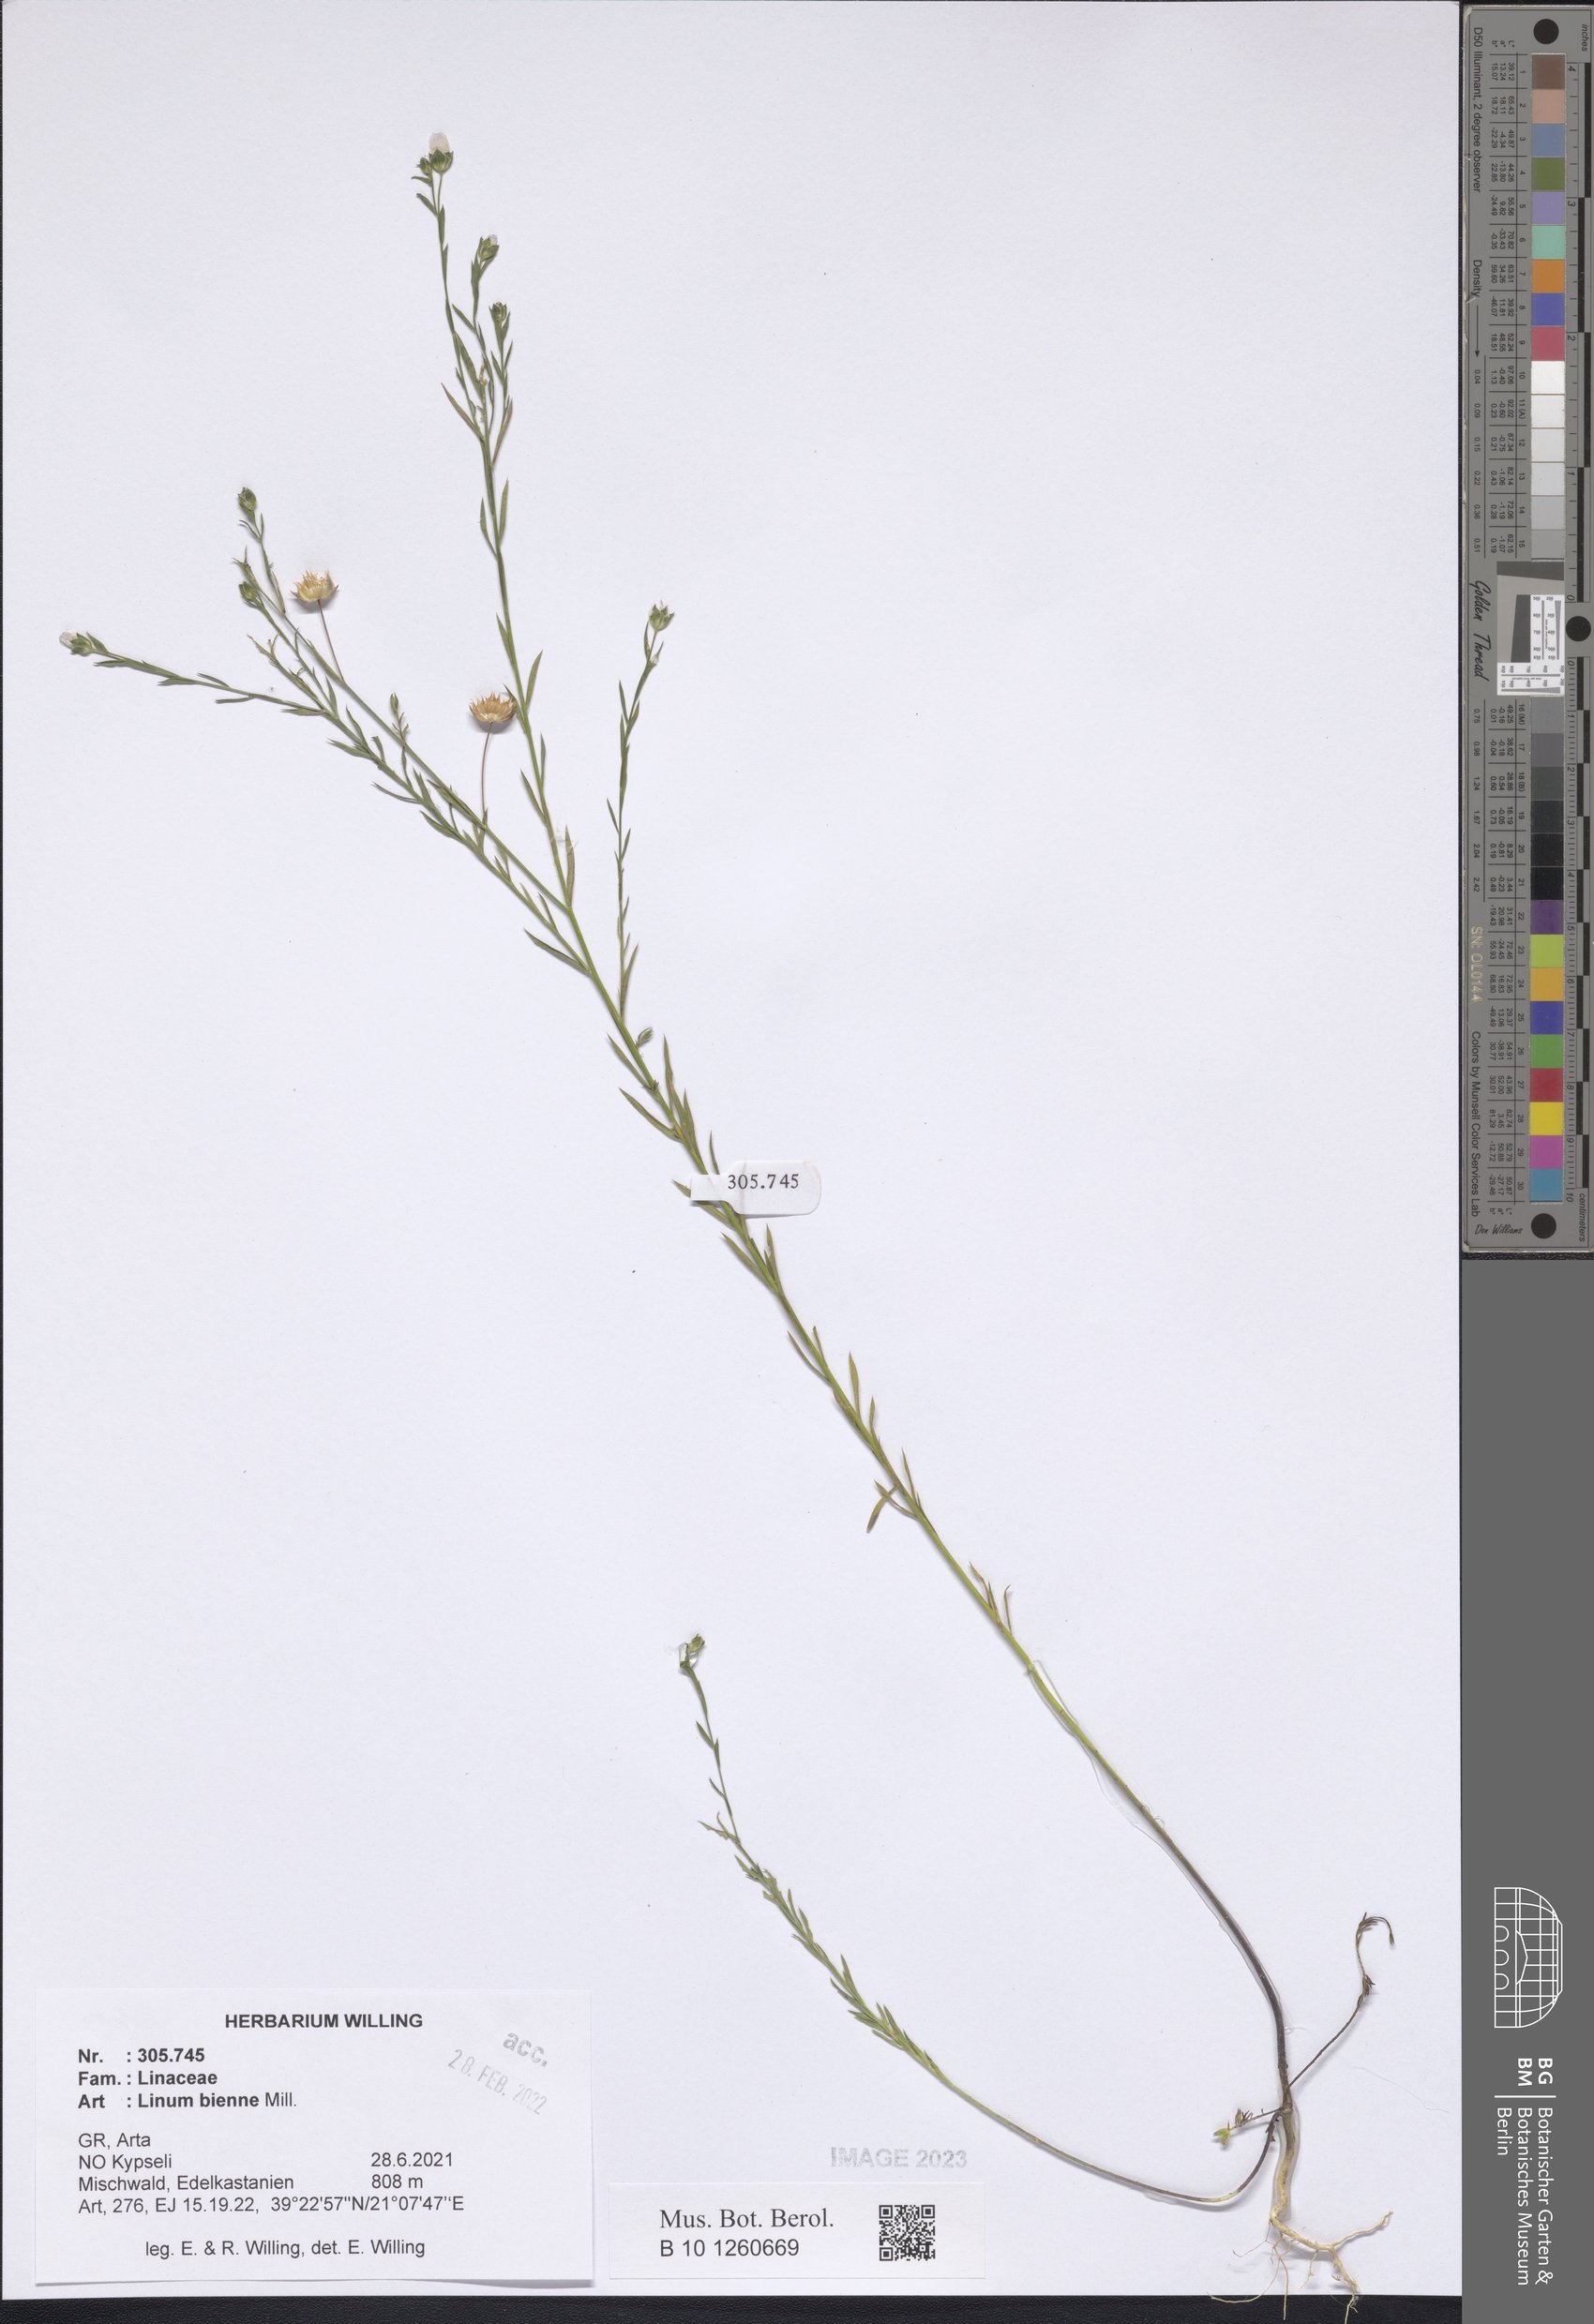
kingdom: Plantae
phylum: Tracheophyta
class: Magnoliopsida
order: Malpighiales
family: Linaceae
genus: Linum
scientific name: Linum bienne
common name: Pale flax
